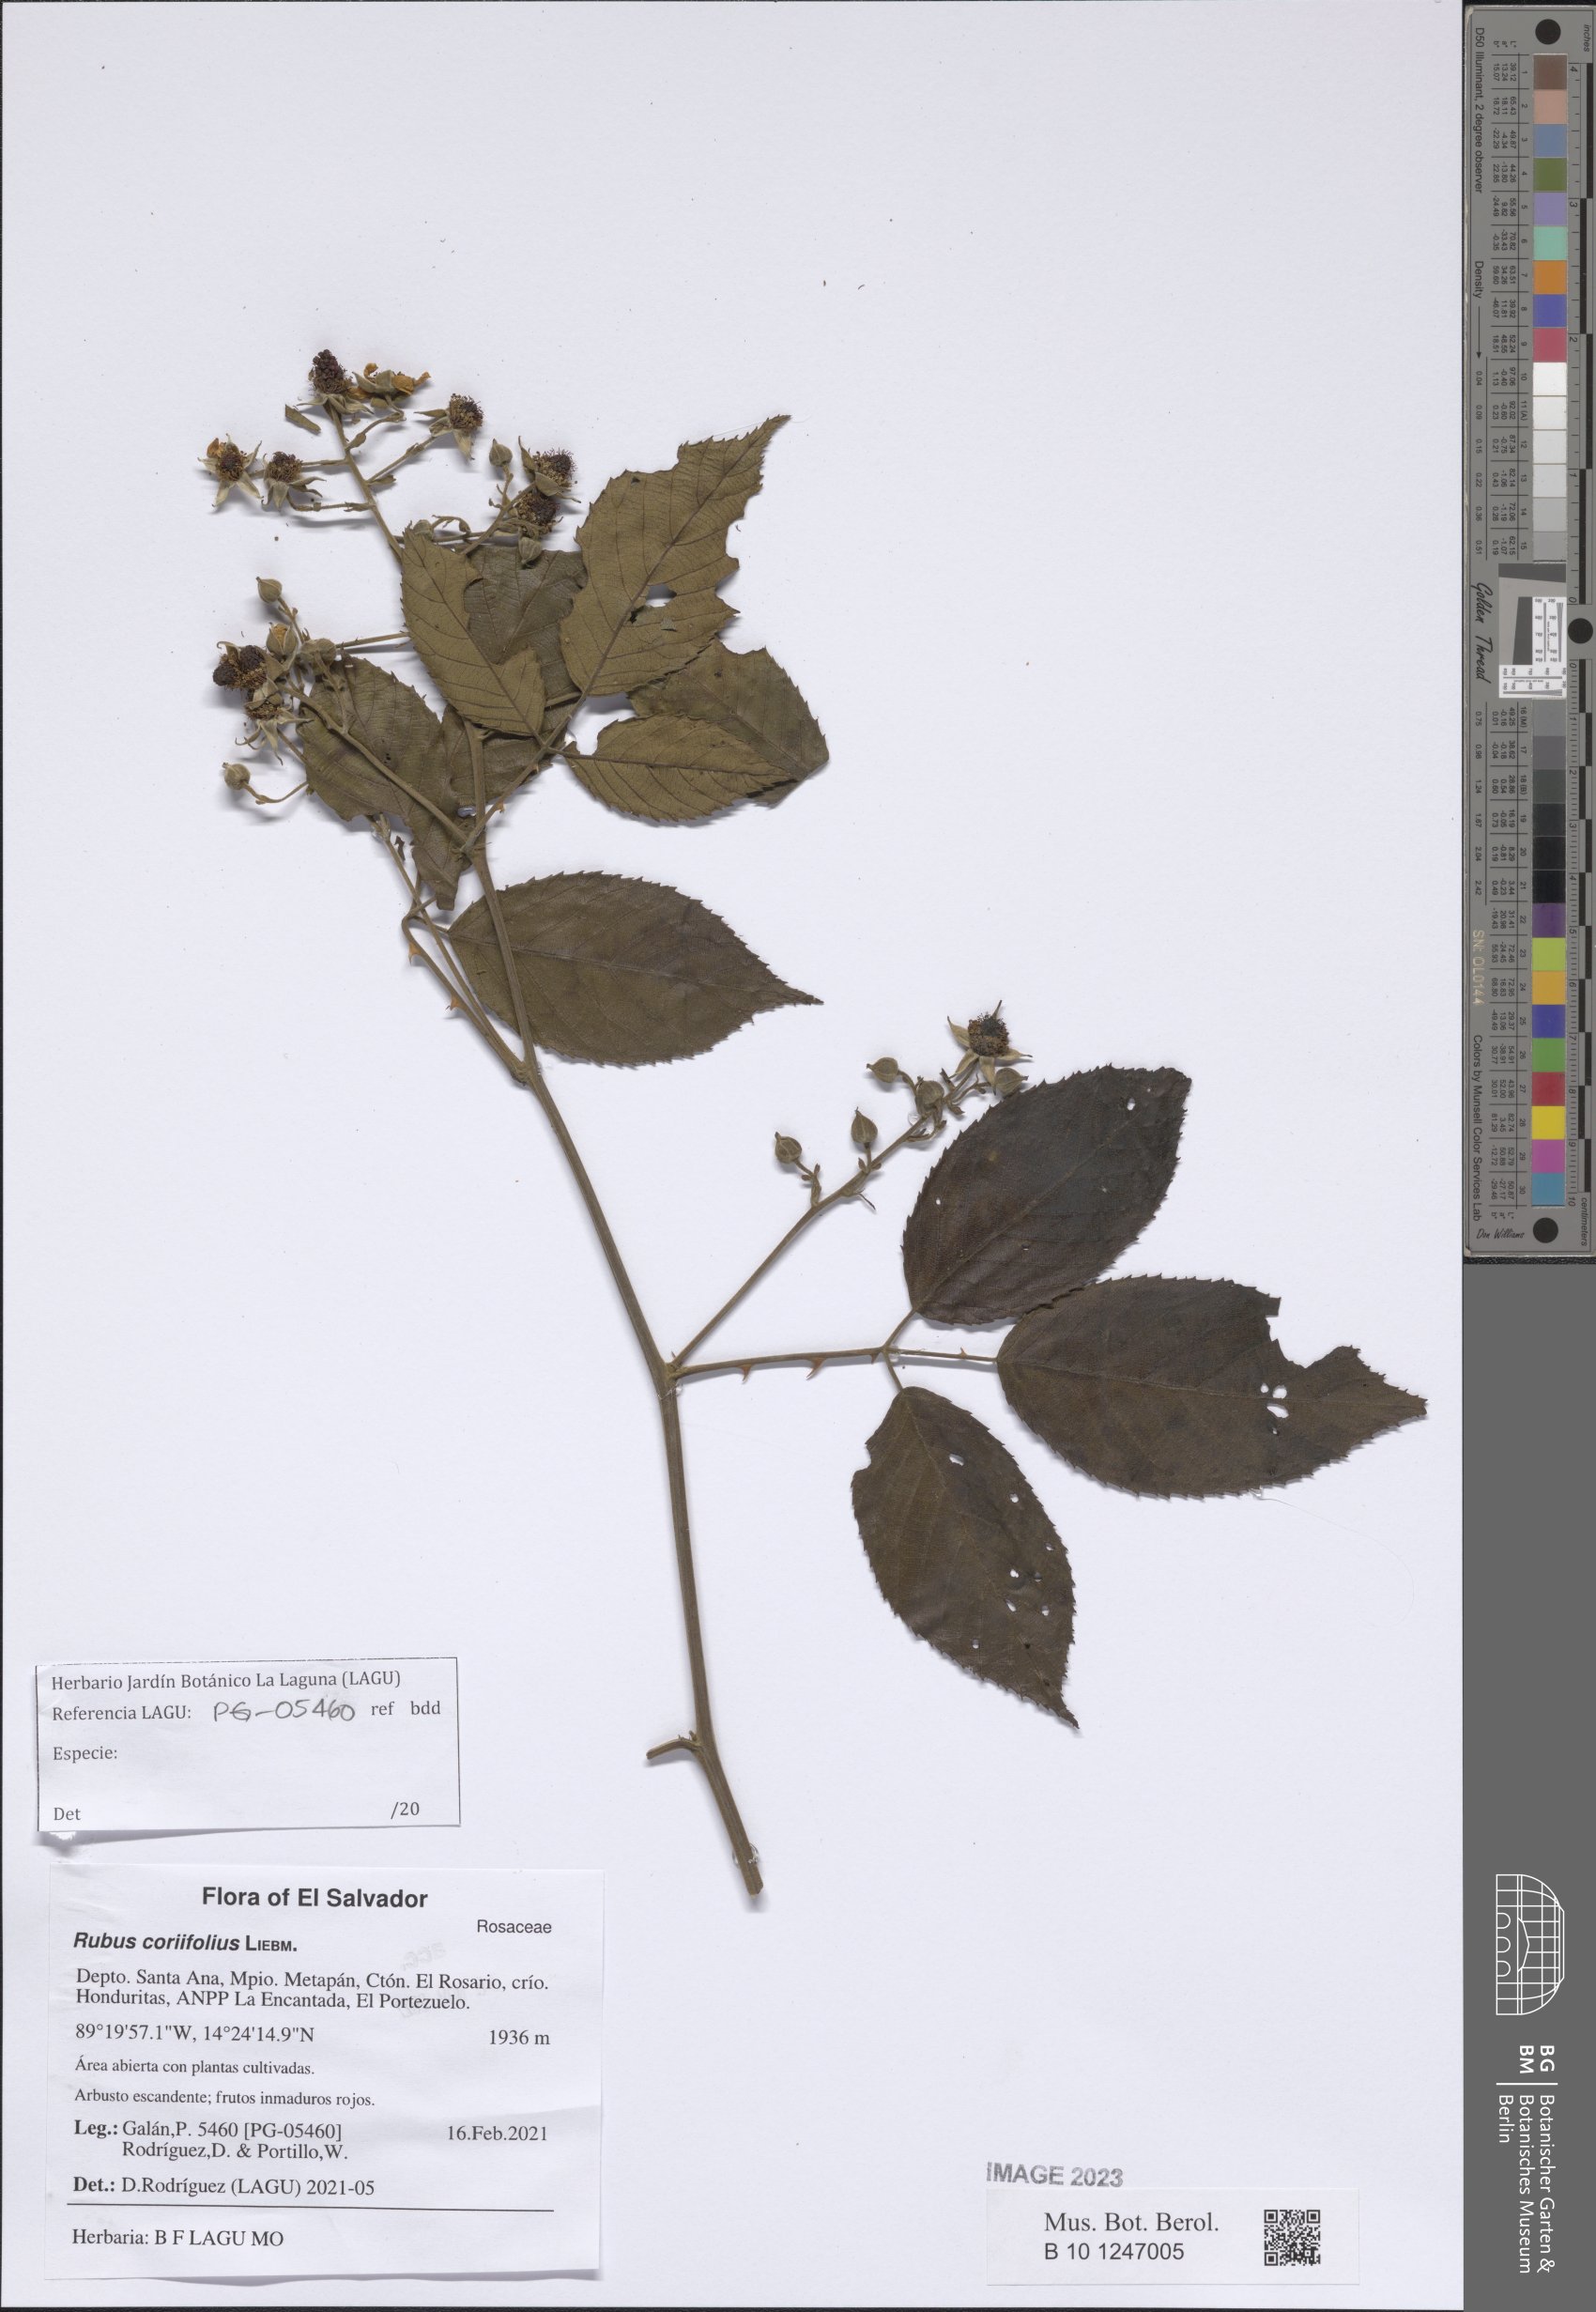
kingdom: Plantae
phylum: Tracheophyta
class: Magnoliopsida
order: Rosales
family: Rosaceae
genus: Rubus
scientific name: Rubus coriifolius
